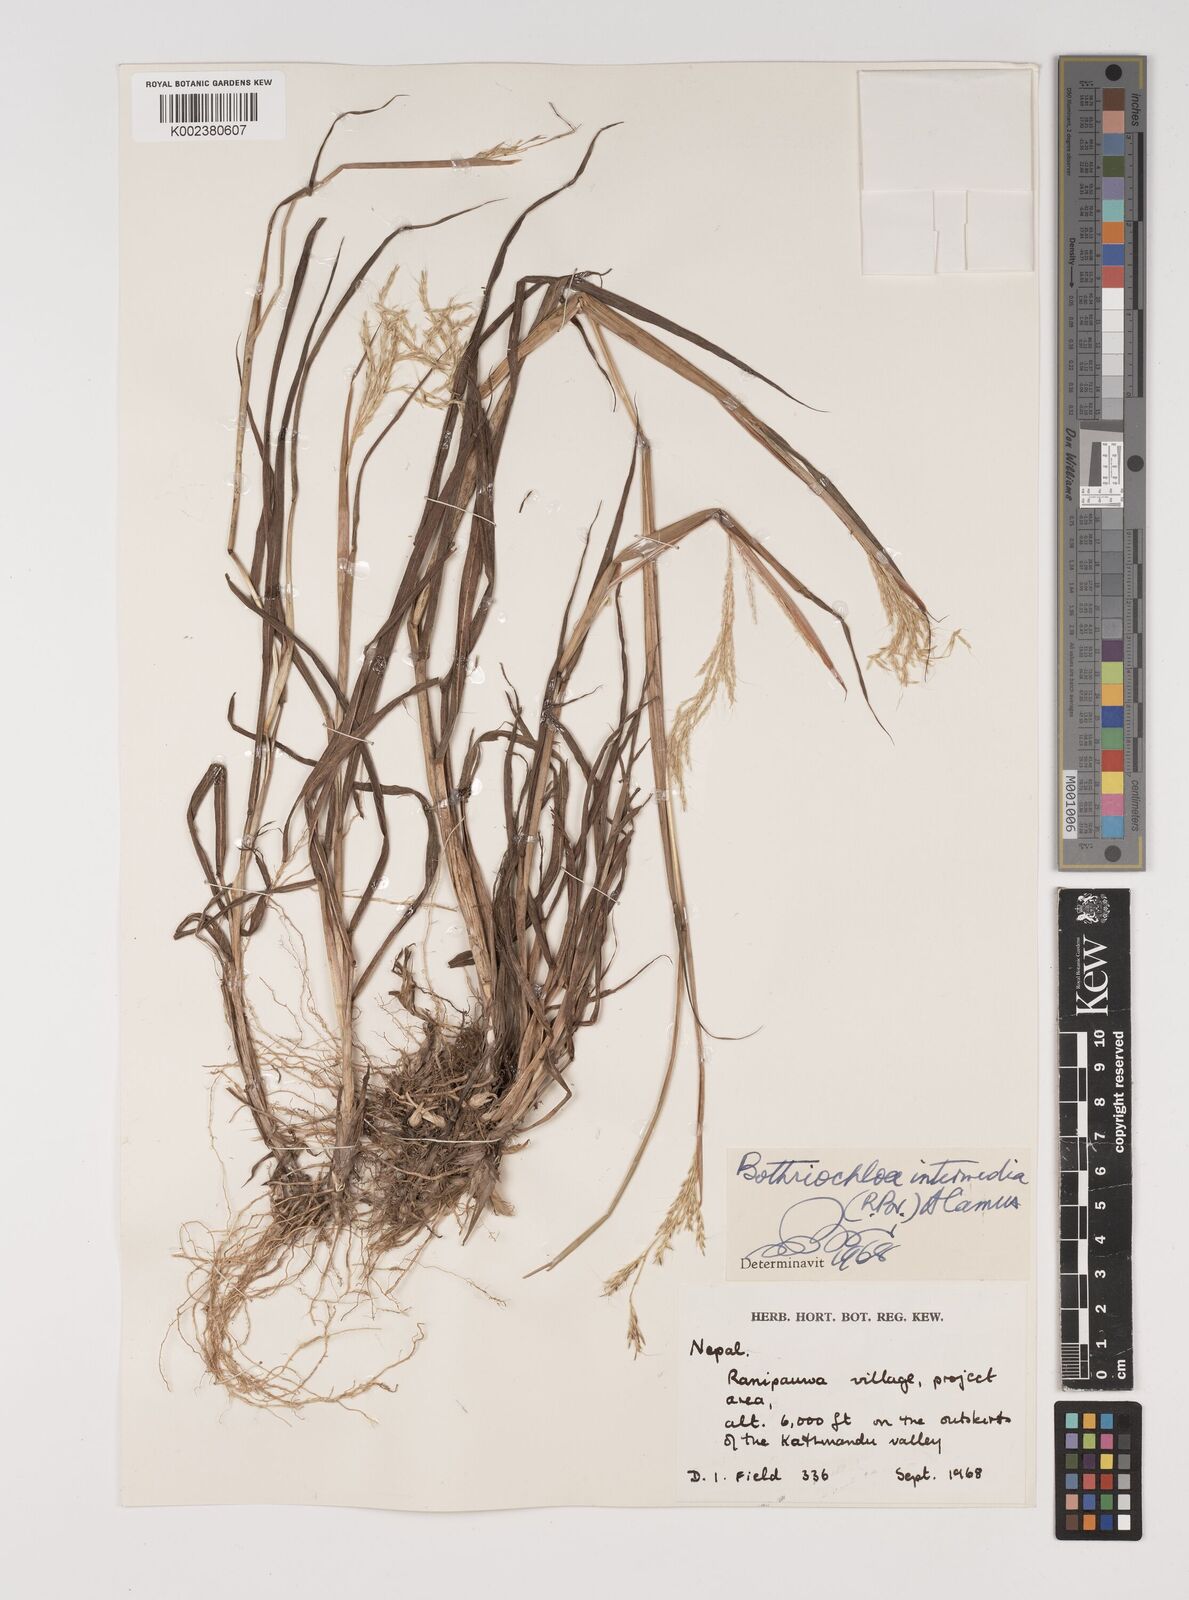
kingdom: Plantae
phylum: Tracheophyta
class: Liliopsida
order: Poales
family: Poaceae
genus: Bothriochloa
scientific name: Bothriochloa bladhii
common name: Caucasian bluestem
